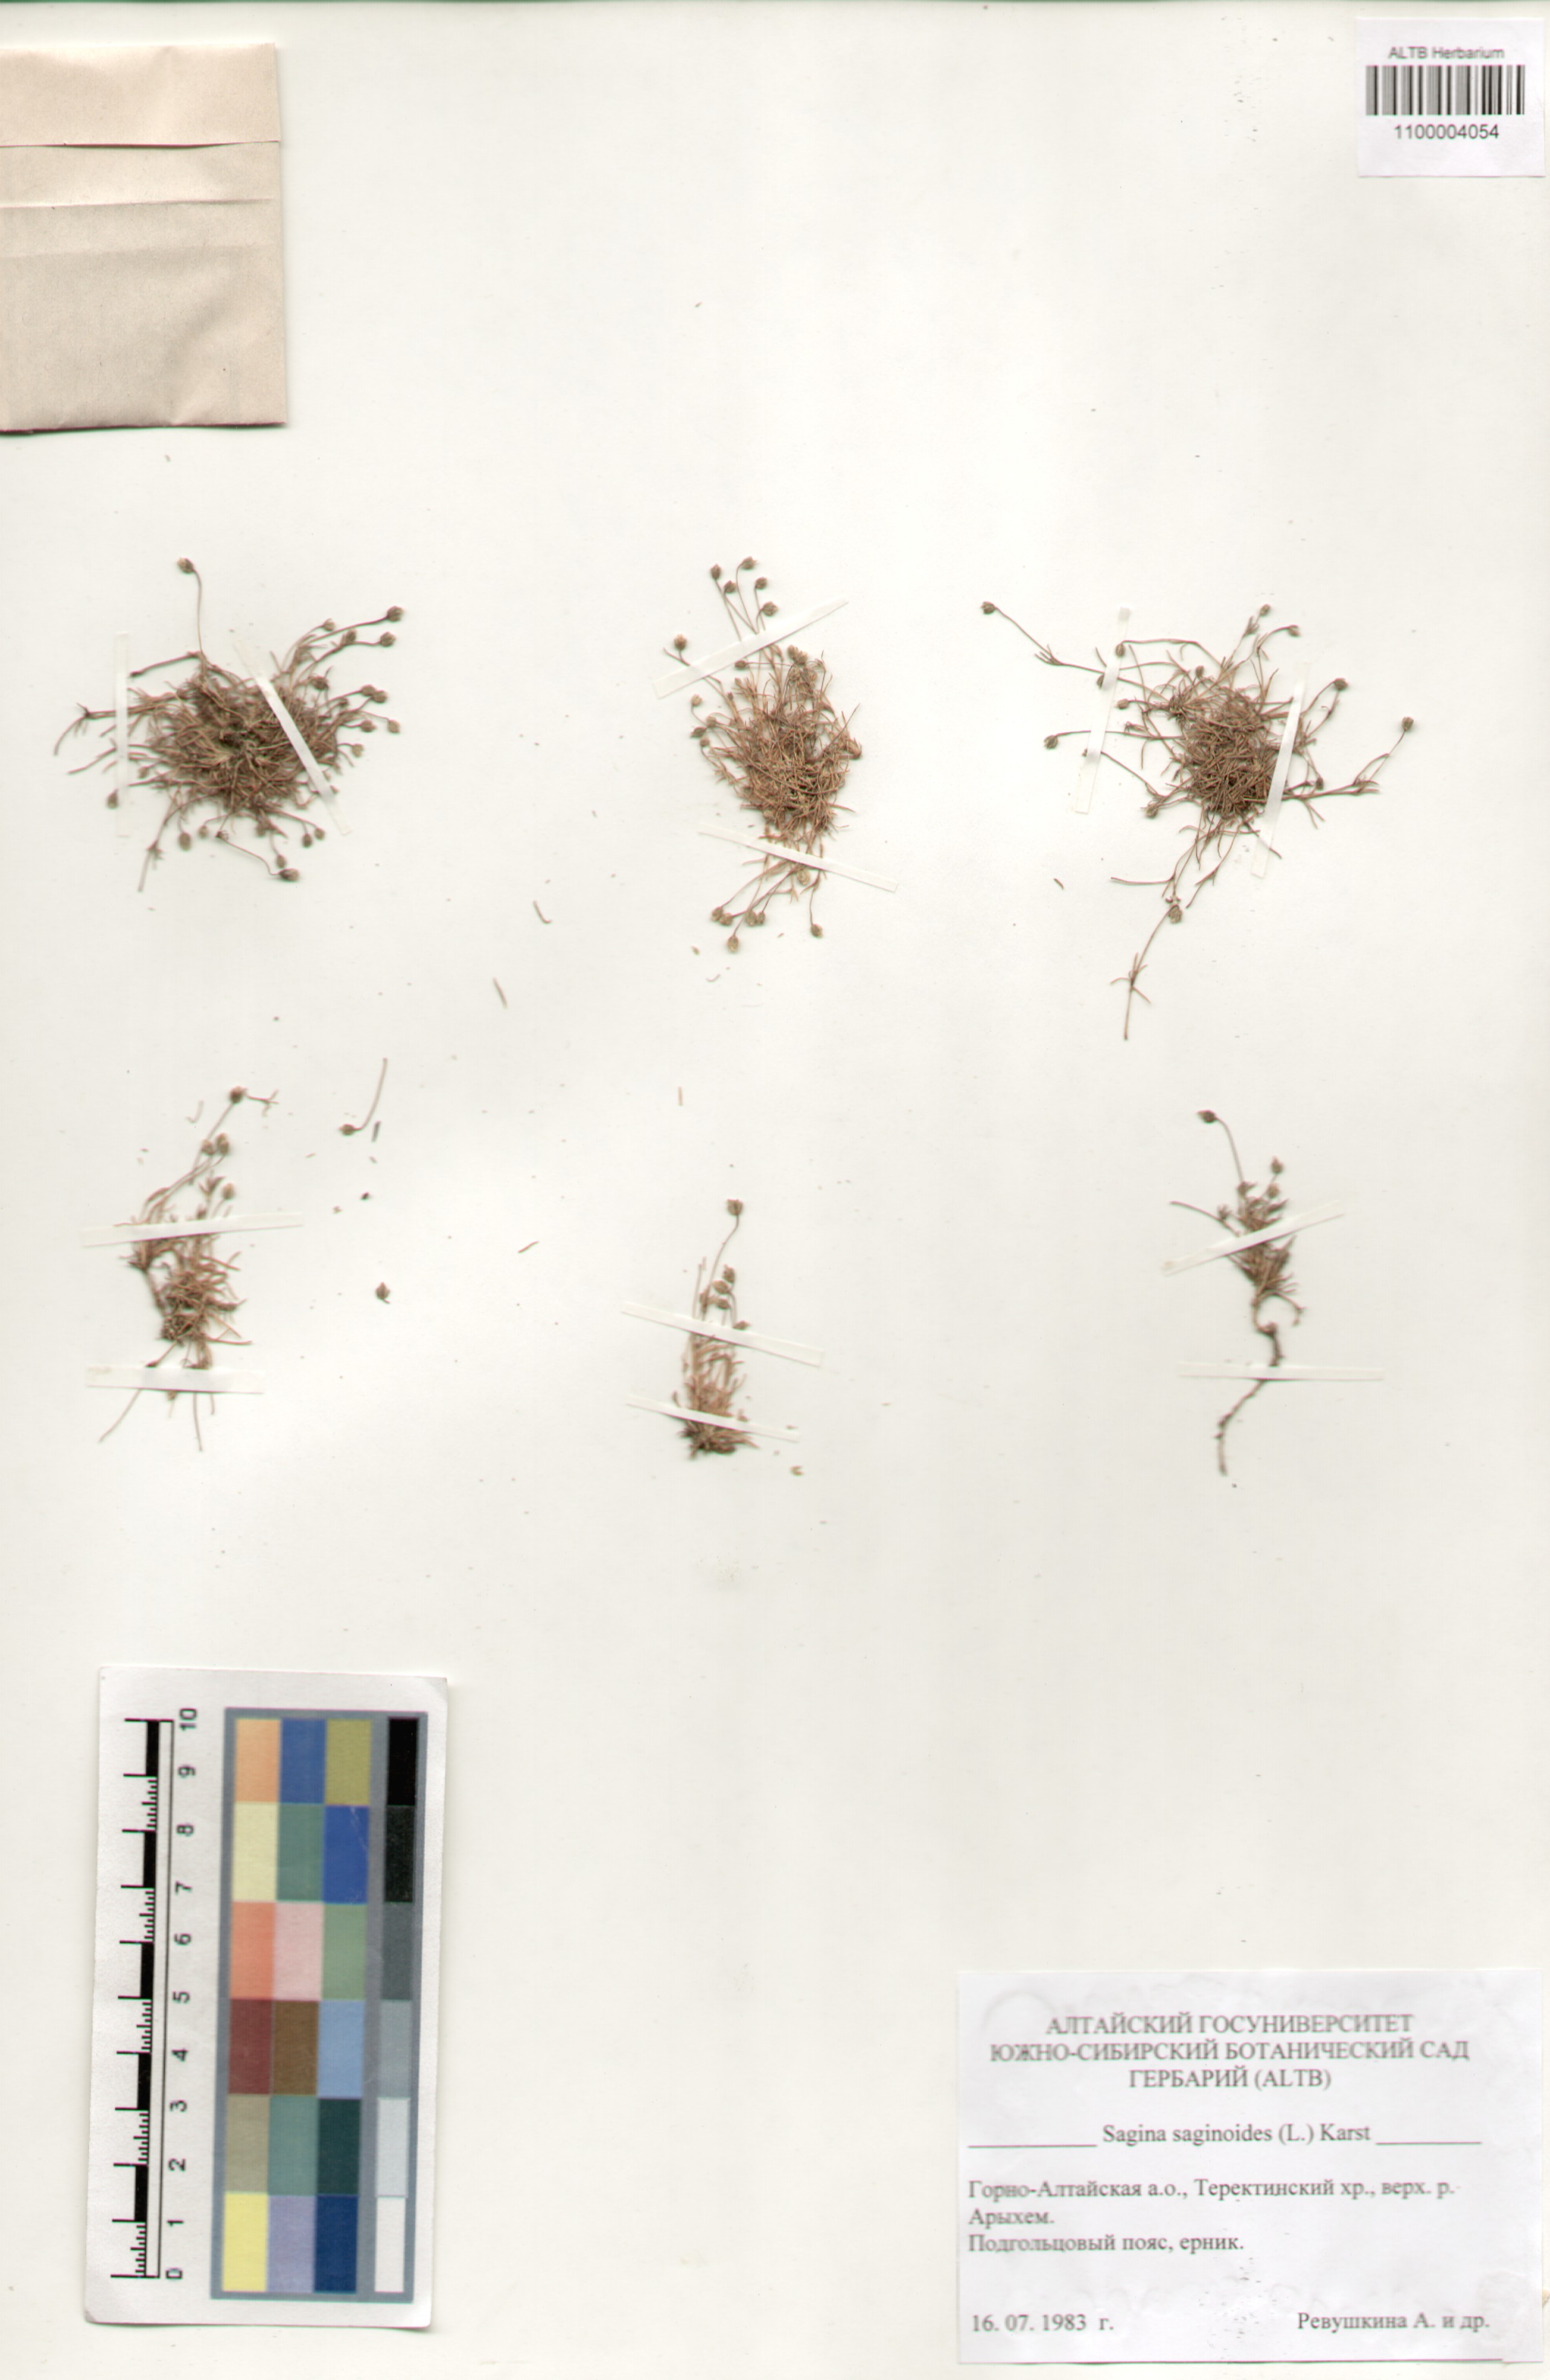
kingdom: Plantae
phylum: Tracheophyta
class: Magnoliopsida
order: Caryophyllales
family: Caryophyllaceae
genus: Sagina
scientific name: Sagina saginoides
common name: Alpine pearlwort
